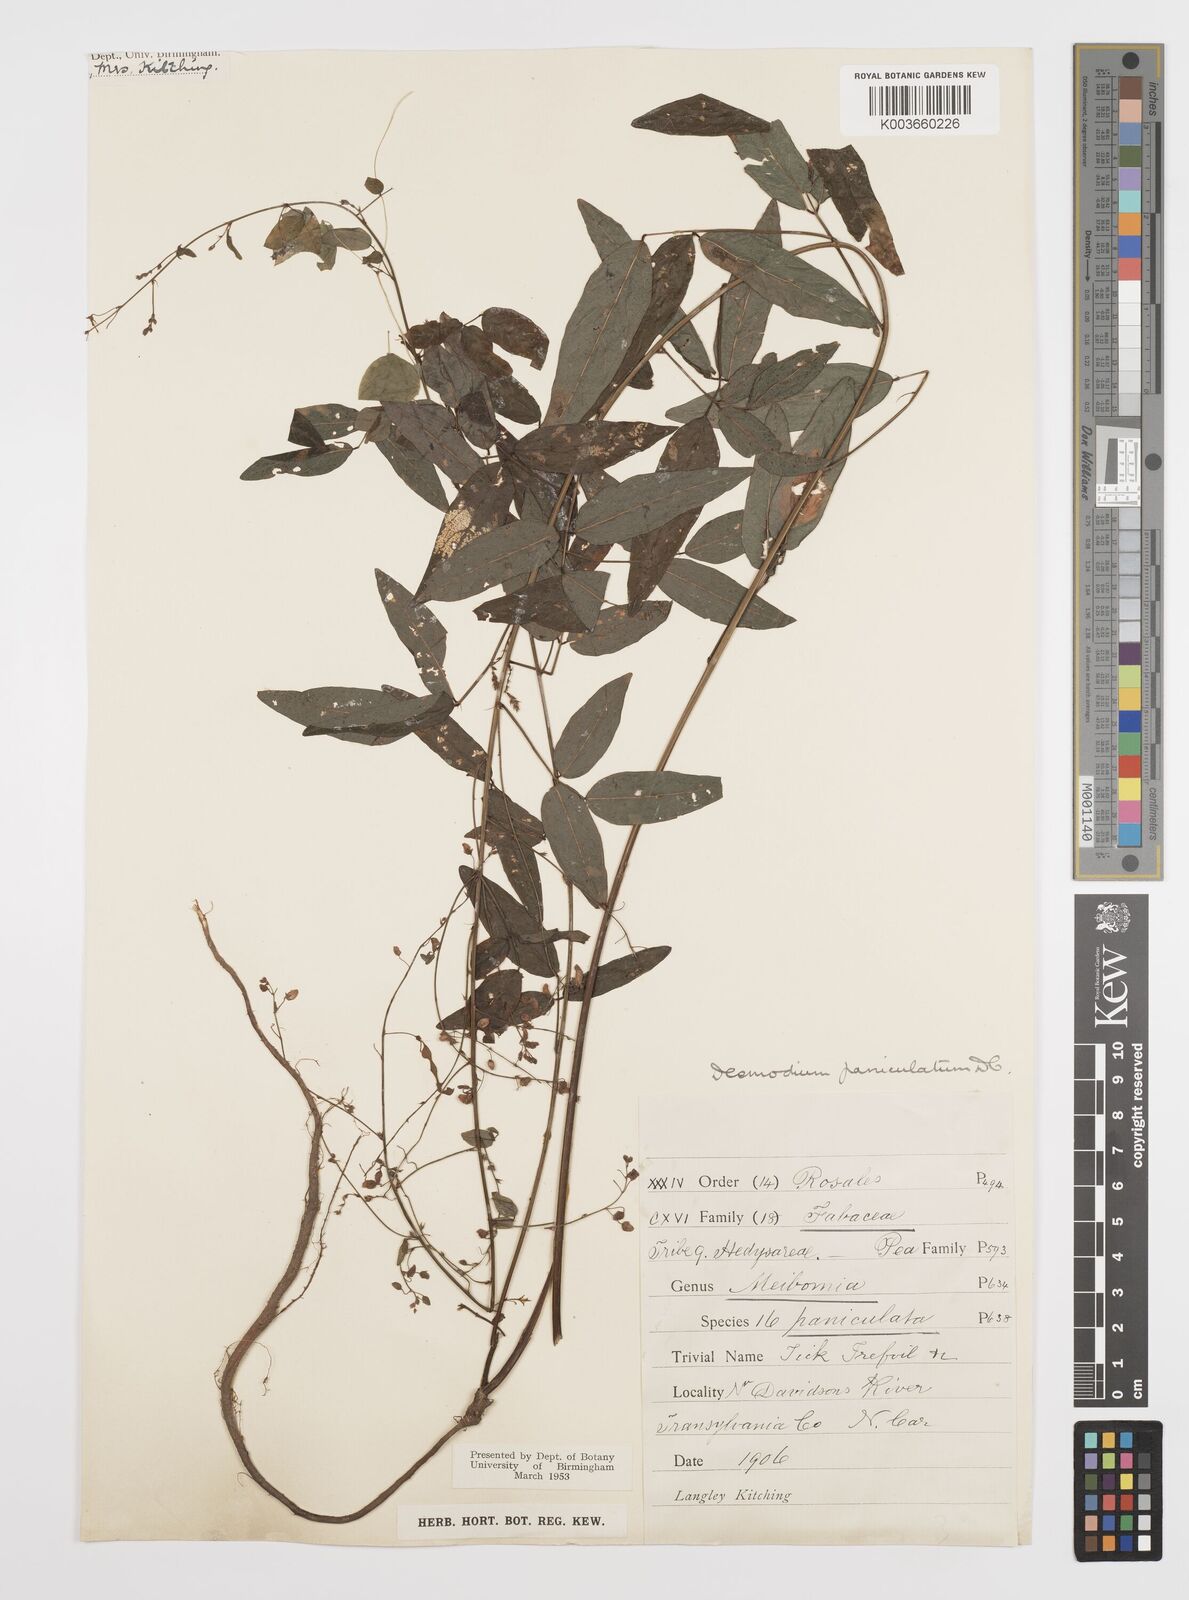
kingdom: Plantae
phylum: Tracheophyta
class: Magnoliopsida
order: Fabales
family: Fabaceae
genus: Desmodium
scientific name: Desmodium paniculatum
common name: Panicled tick-clover
